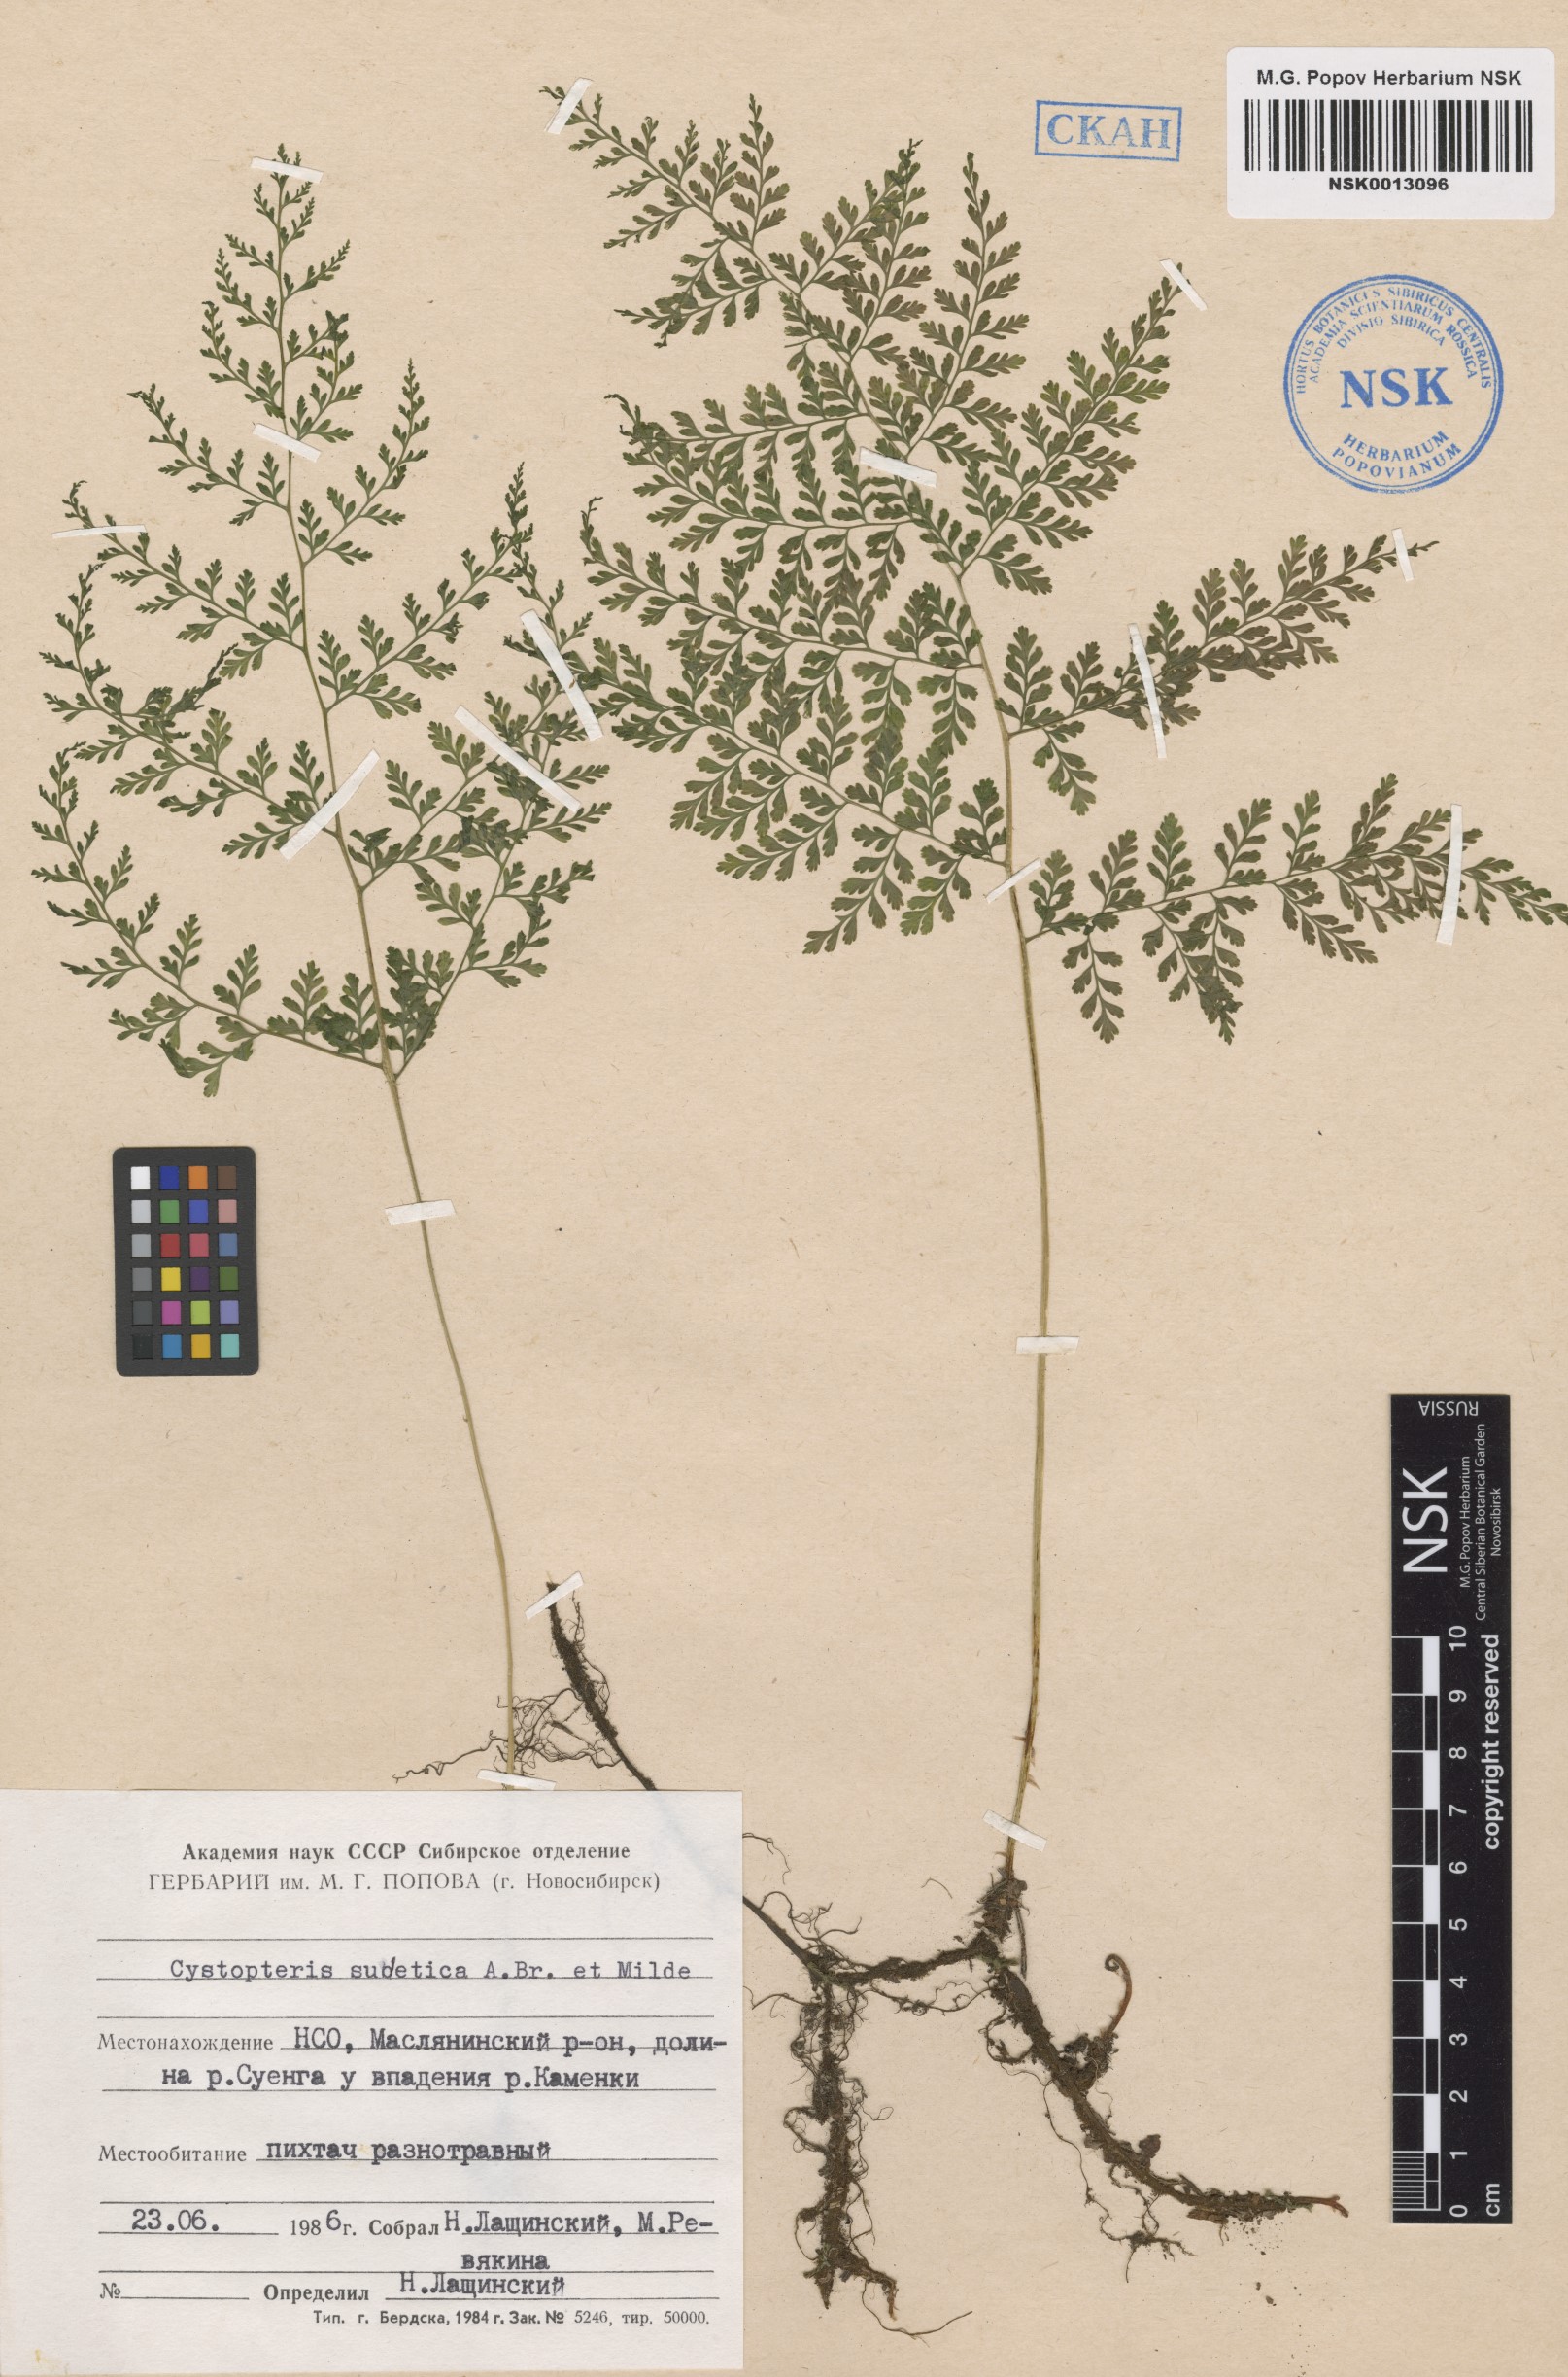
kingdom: Plantae
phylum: Tracheophyta
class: Polypodiopsida
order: Polypodiales
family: Cystopteridaceae
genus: Cystopteris
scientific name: Cystopteris sudetica
